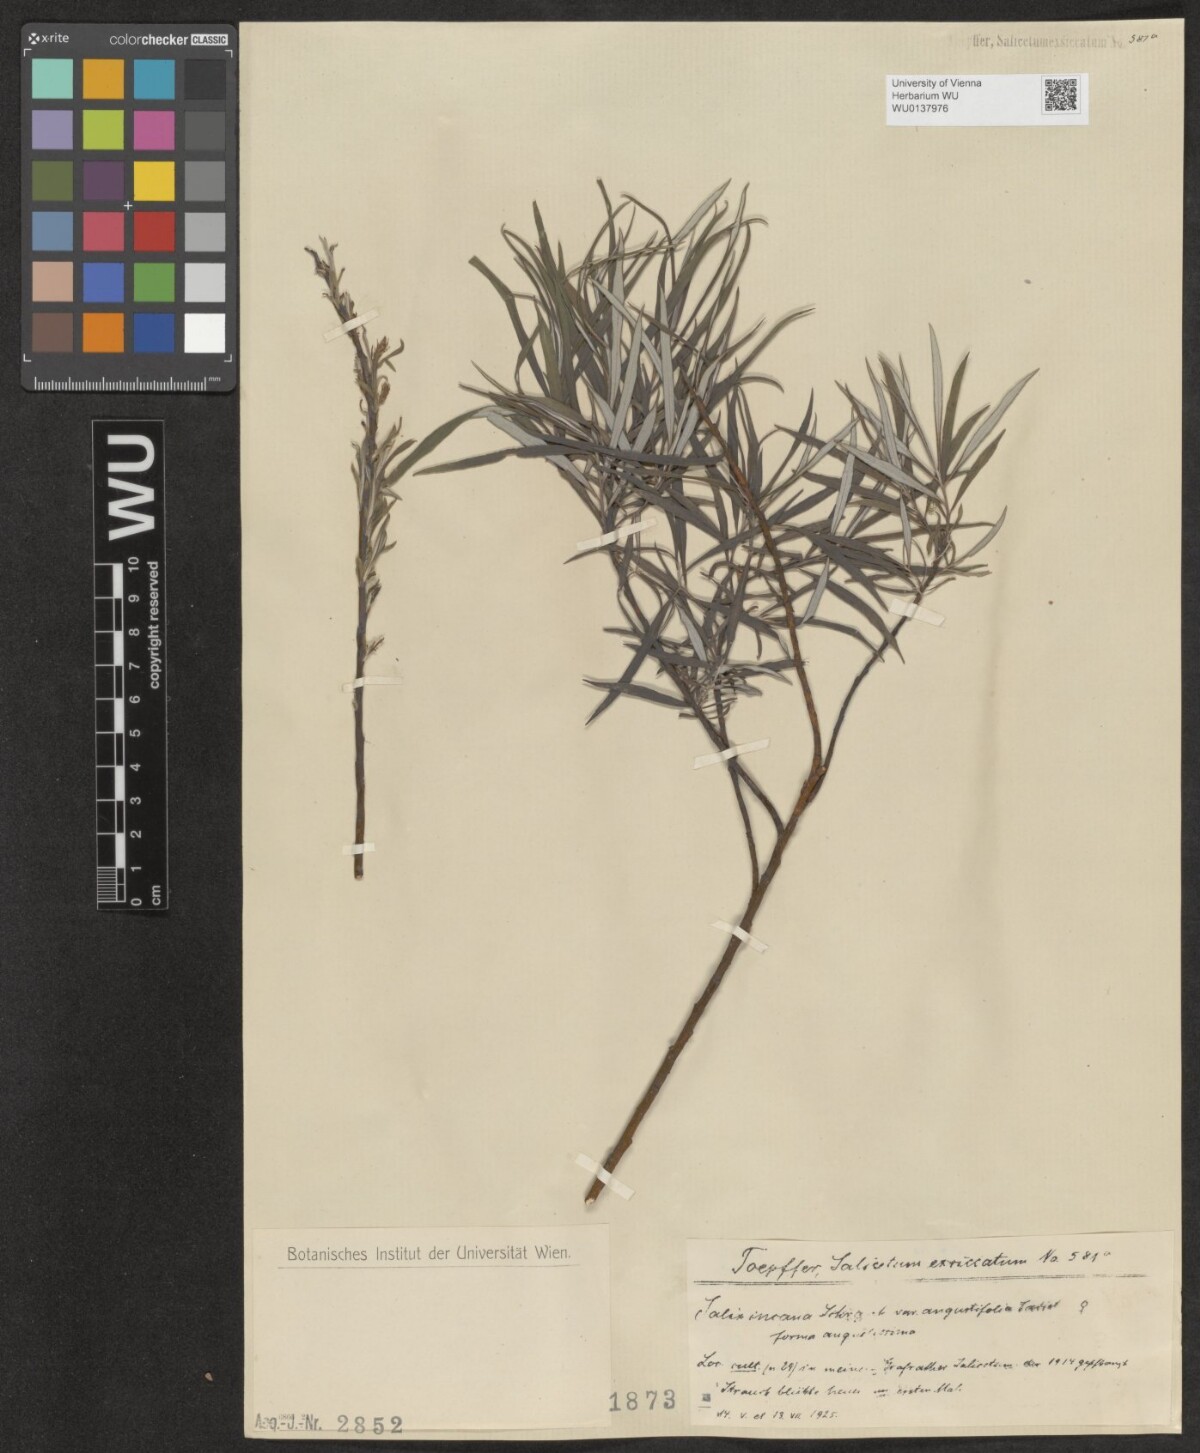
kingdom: Plantae
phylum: Tracheophyta
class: Magnoliopsida
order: Malpighiales
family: Salicaceae
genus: Salix
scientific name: Salix eleagnos
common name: Elaeagnus willow
